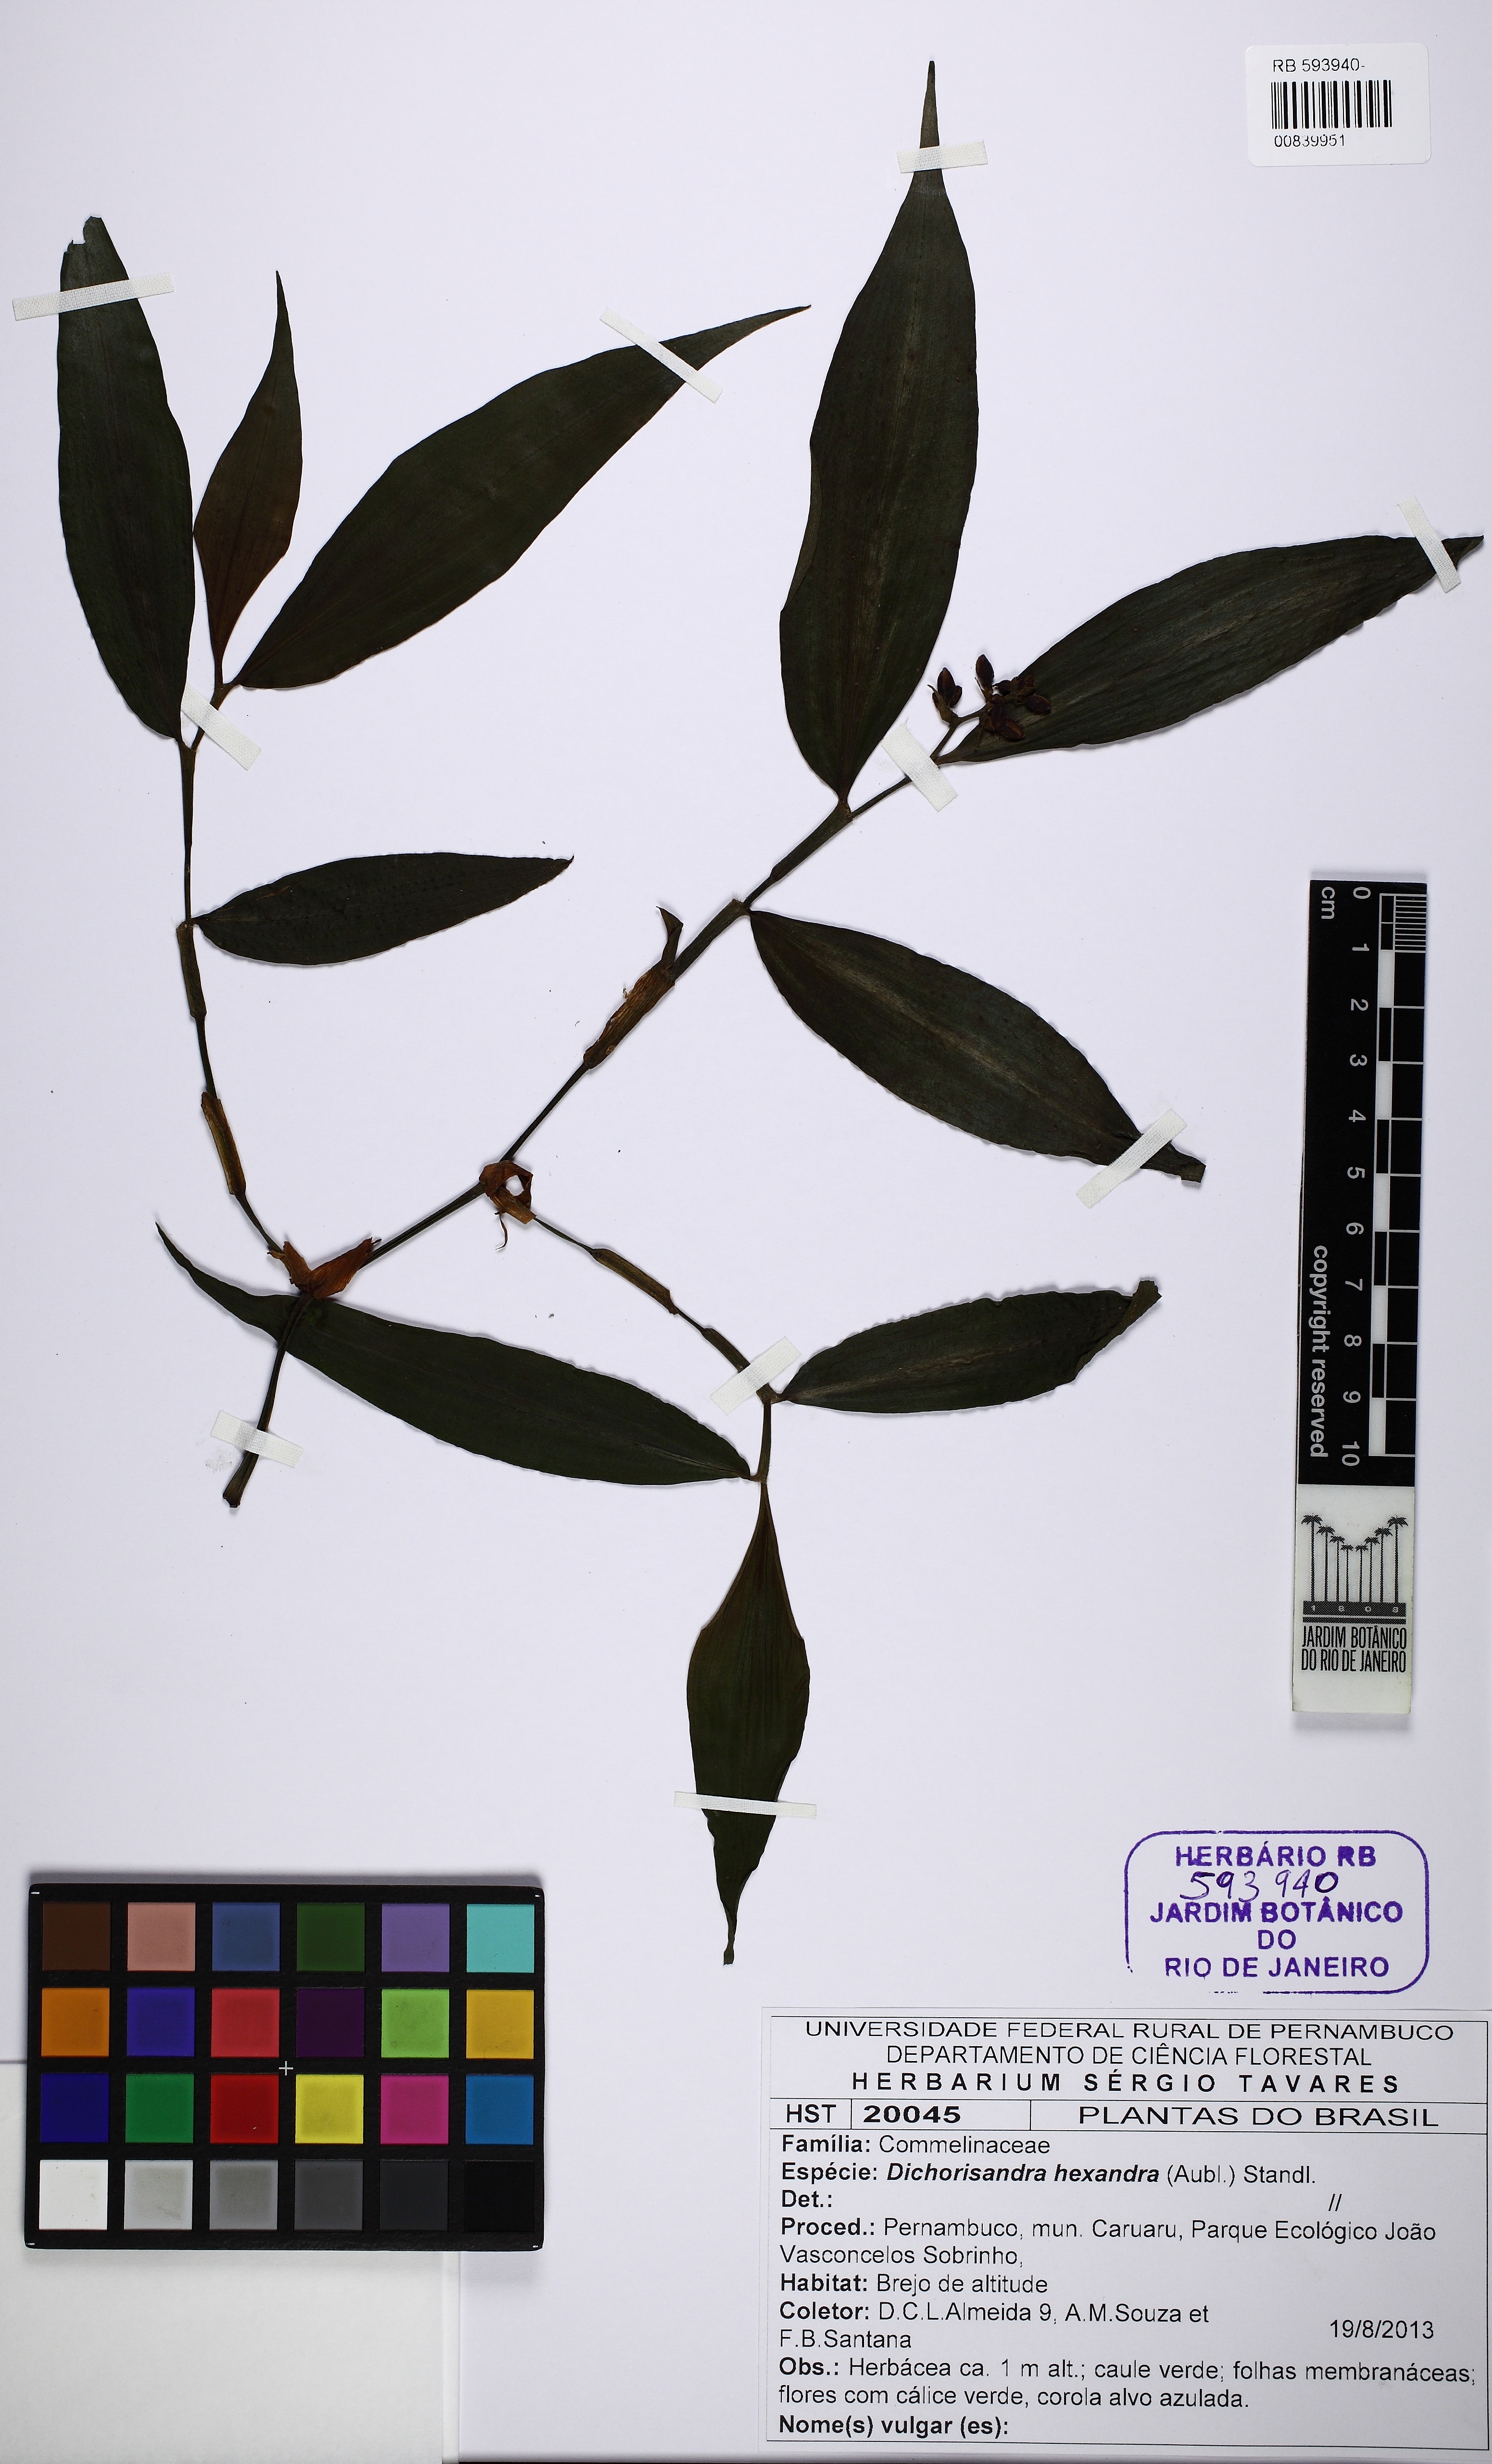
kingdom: Plantae
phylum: Tracheophyta
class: Liliopsida
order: Commelinales
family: Commelinaceae
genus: Dichorisandra
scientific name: Dichorisandra hexandra
